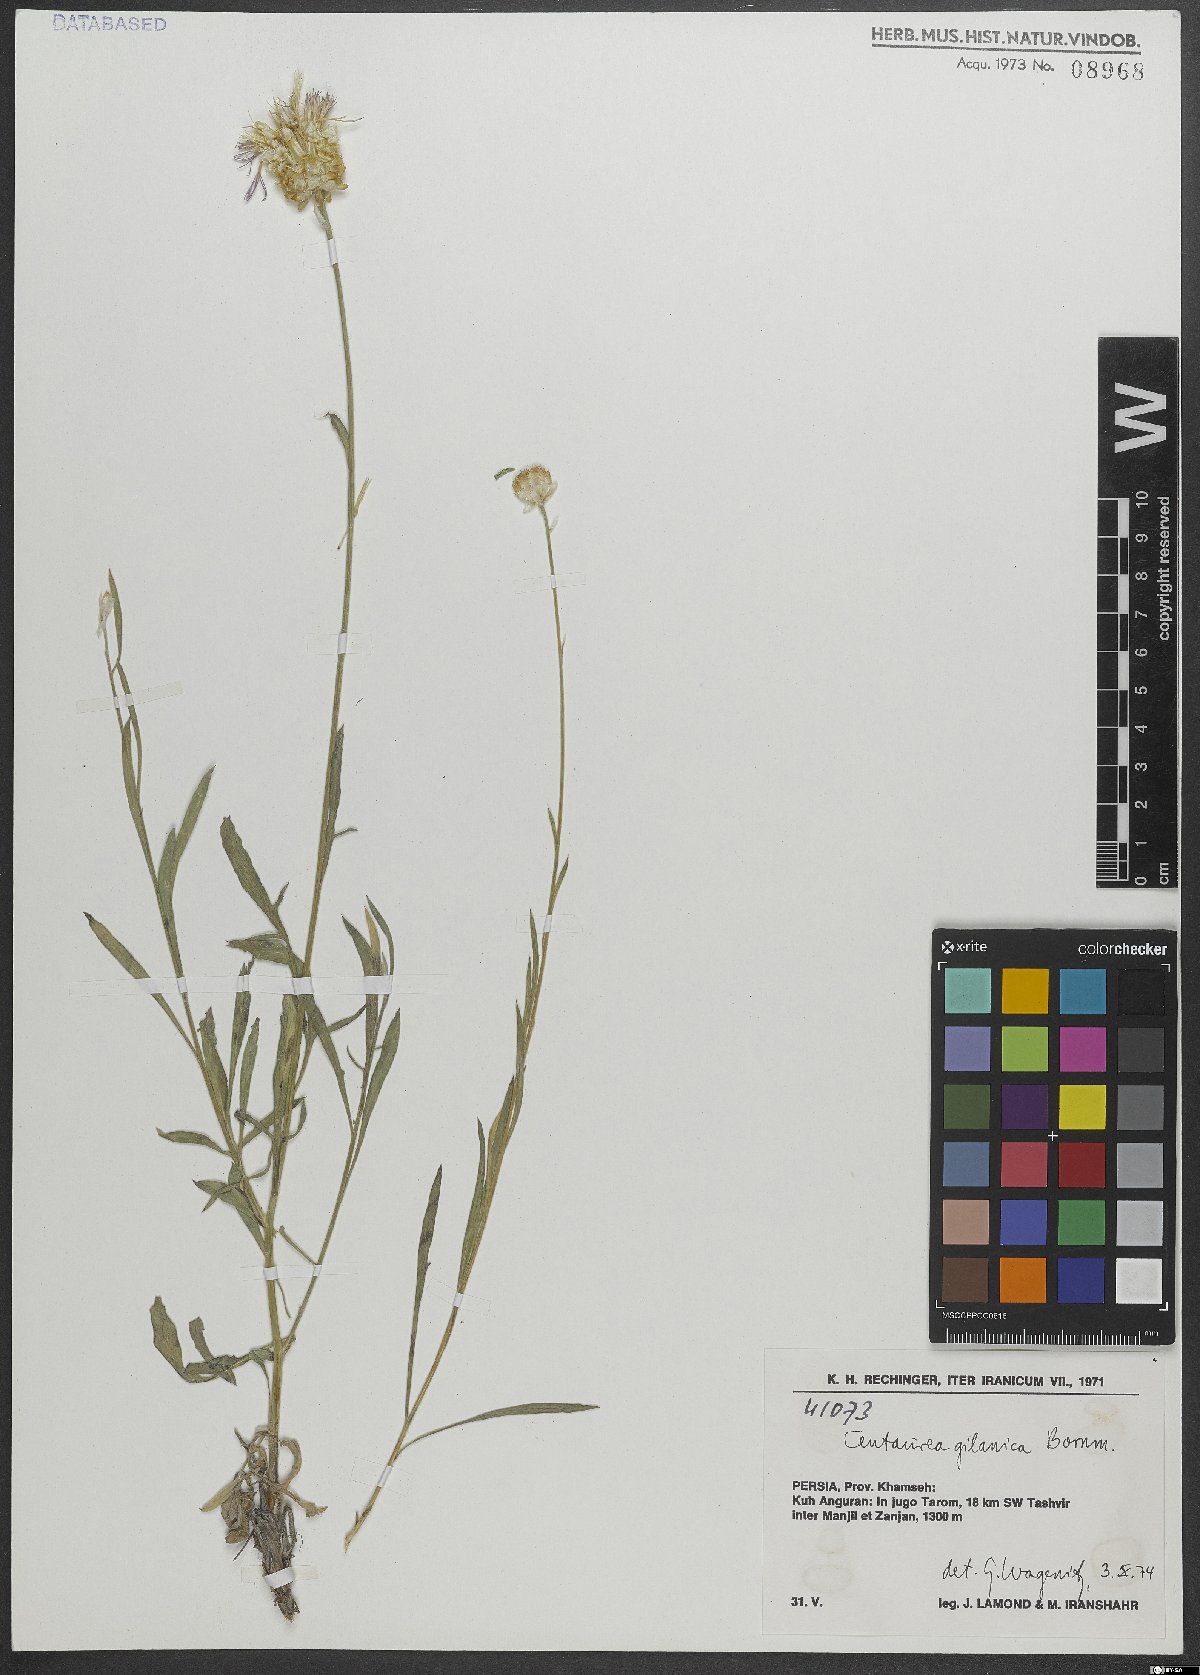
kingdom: Plantae
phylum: Tracheophyta
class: Magnoliopsida
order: Asterales
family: Asteraceae
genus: Psephellus
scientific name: Psephellus gilanicus
